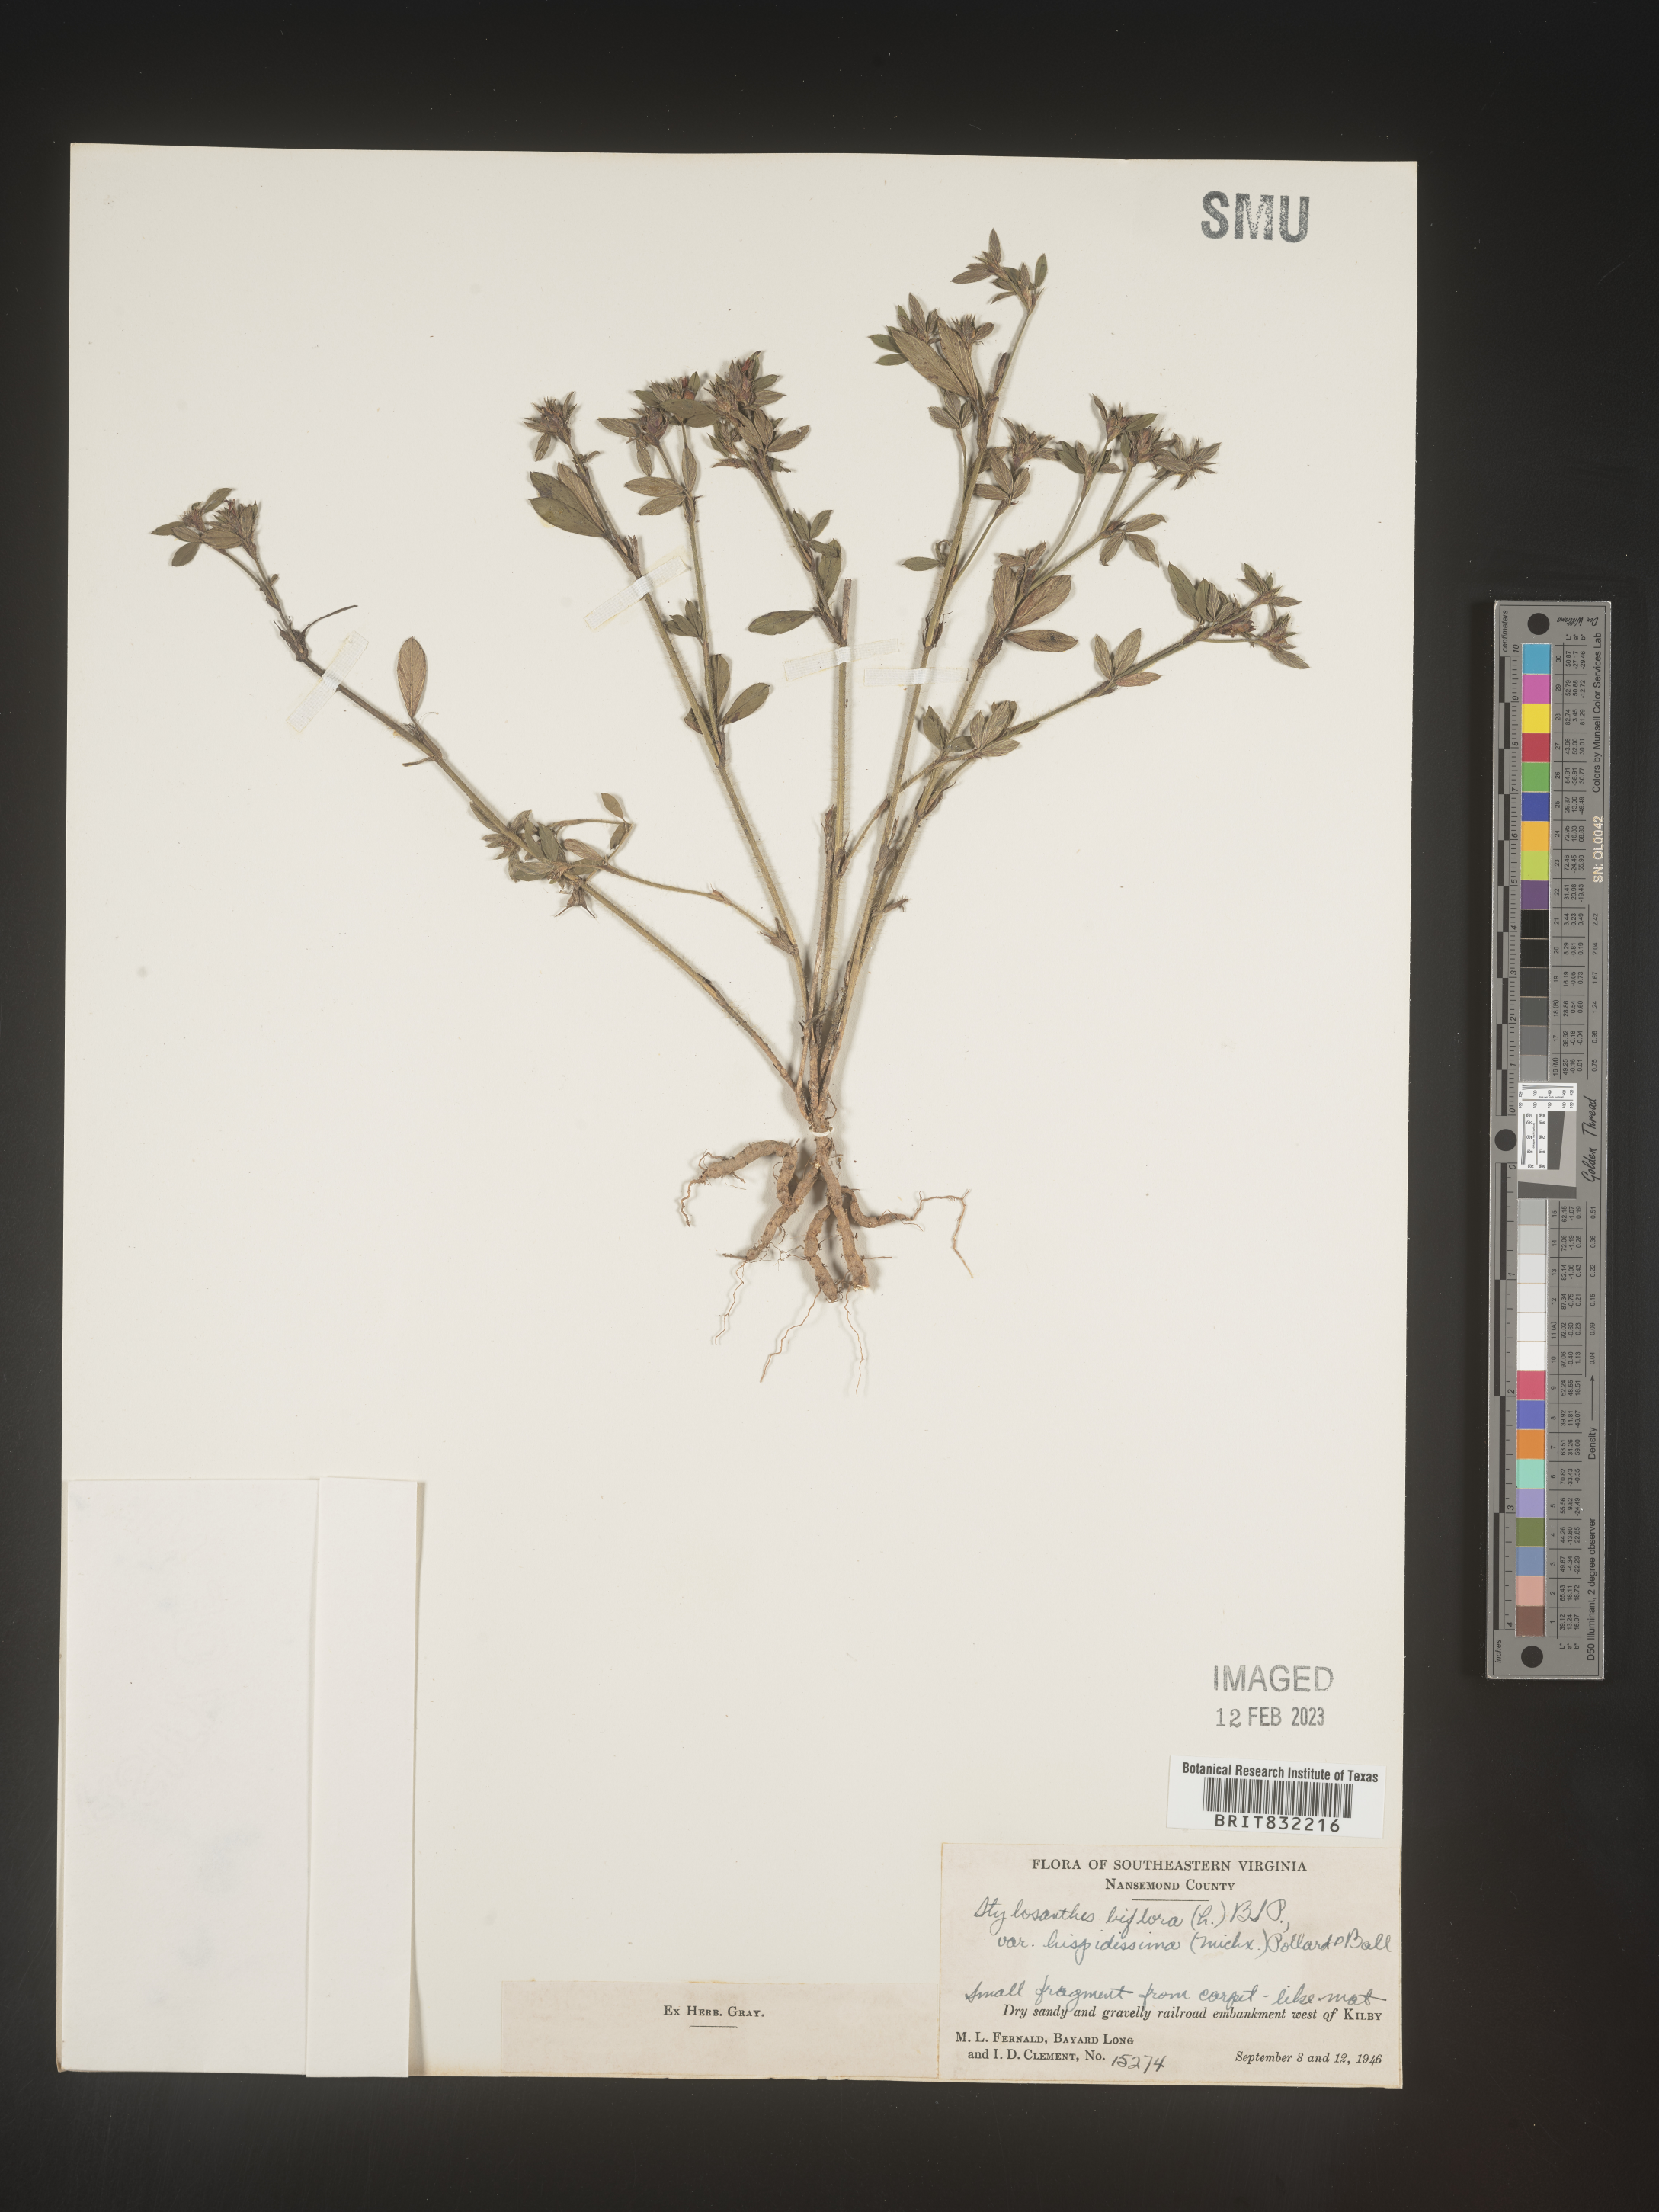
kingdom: Plantae
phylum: Tracheophyta
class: Magnoliopsida
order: Fabales
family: Fabaceae
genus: Stylosanthes
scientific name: Stylosanthes biflora
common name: Two-flower pencil-flower
